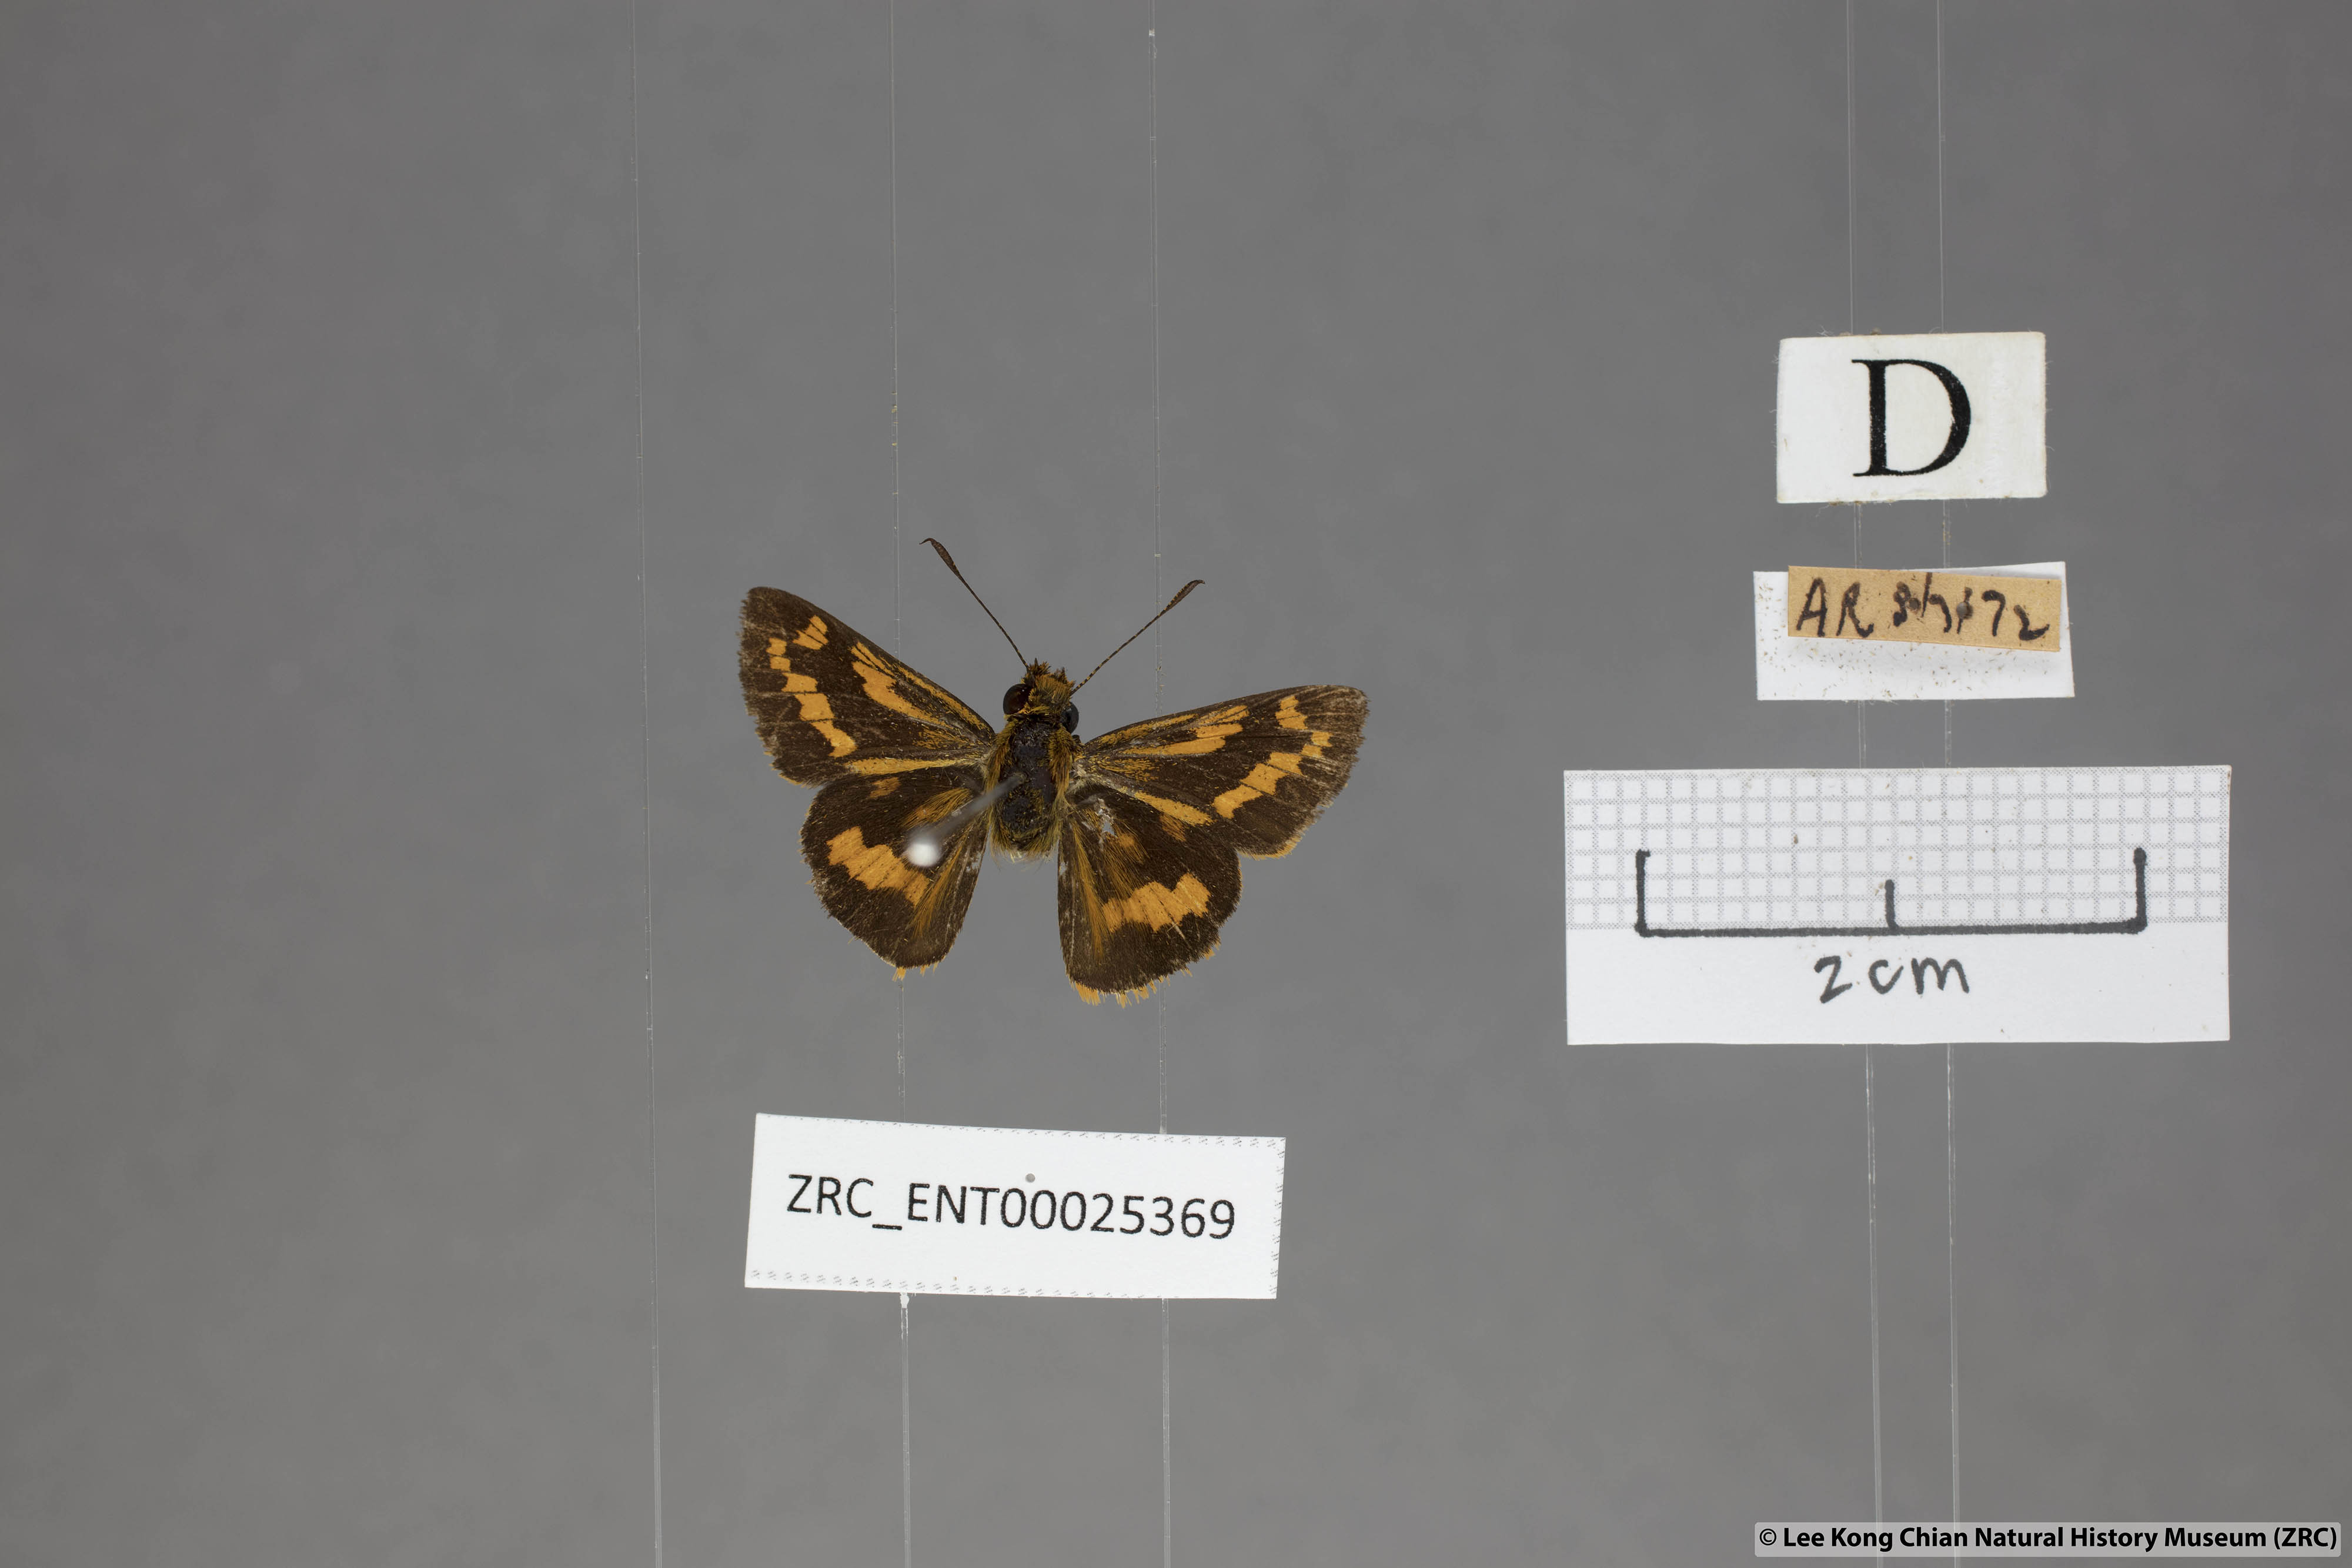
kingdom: Animalia
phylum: Arthropoda
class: Insecta
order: Lepidoptera
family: Hesperiidae
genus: Potanthus
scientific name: Potanthus ganda
